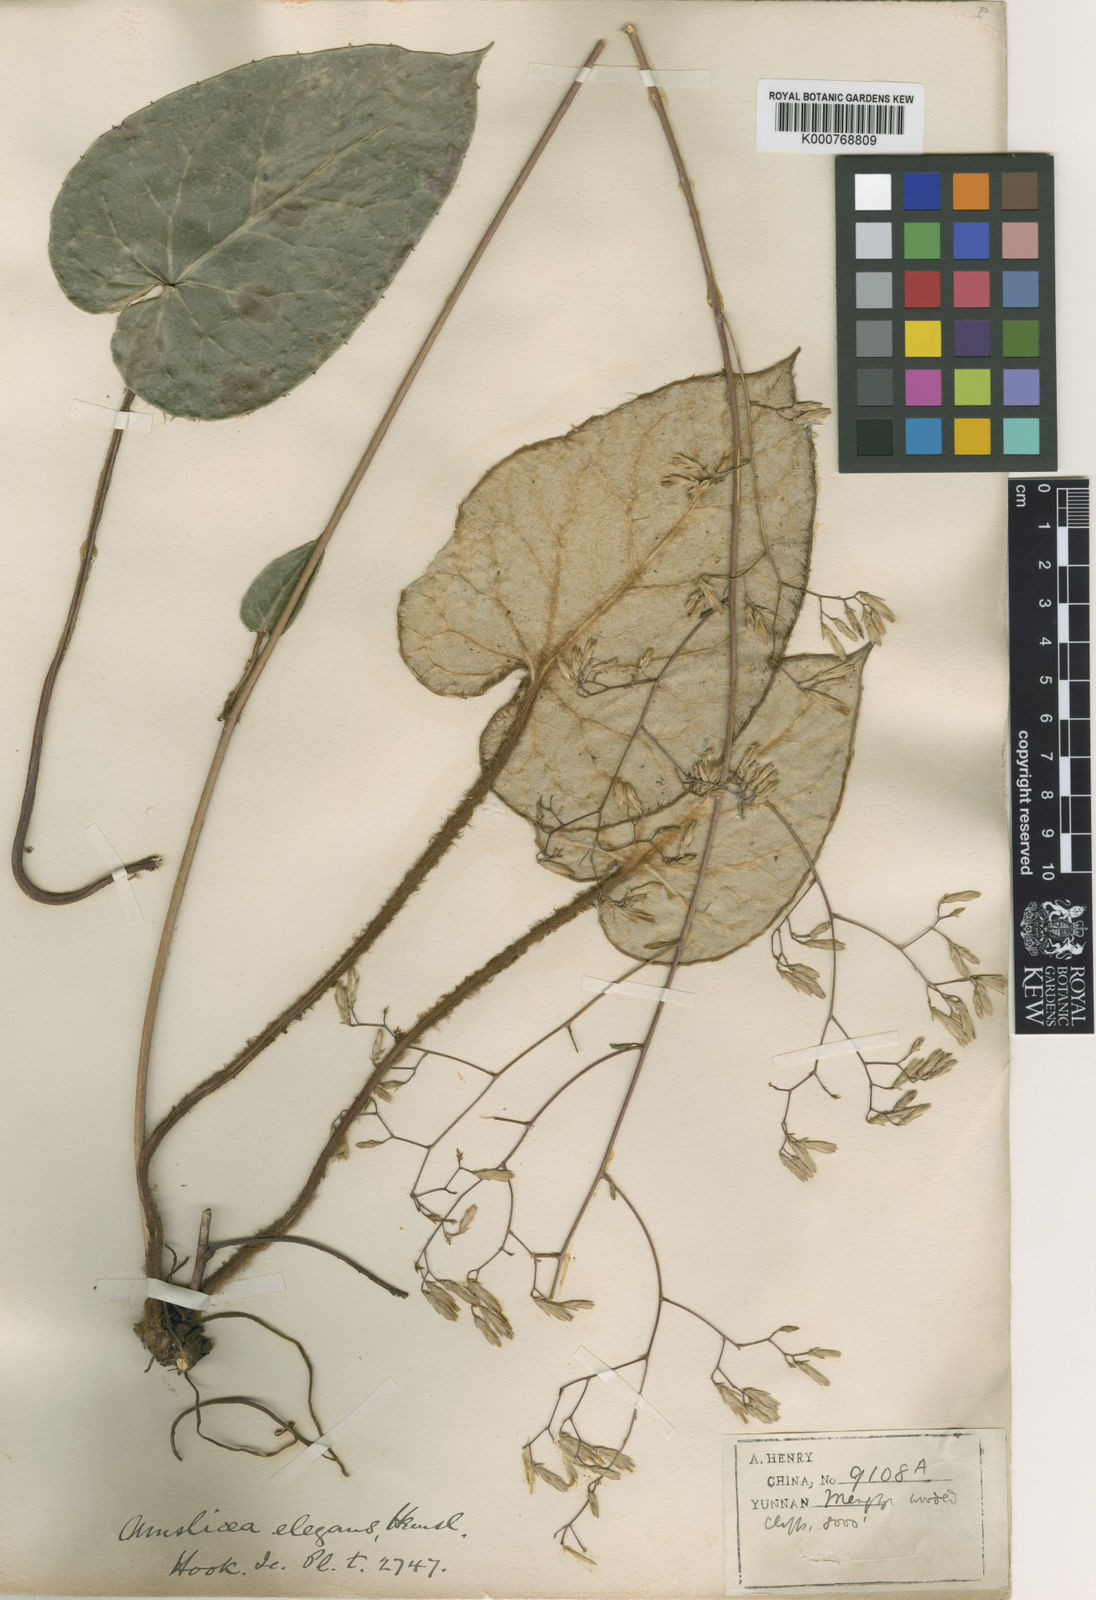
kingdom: Plantae
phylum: Tracheophyta
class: Magnoliopsida
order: Asterales
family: Asteraceae
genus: Ainsliaea
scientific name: Ainsliaea
